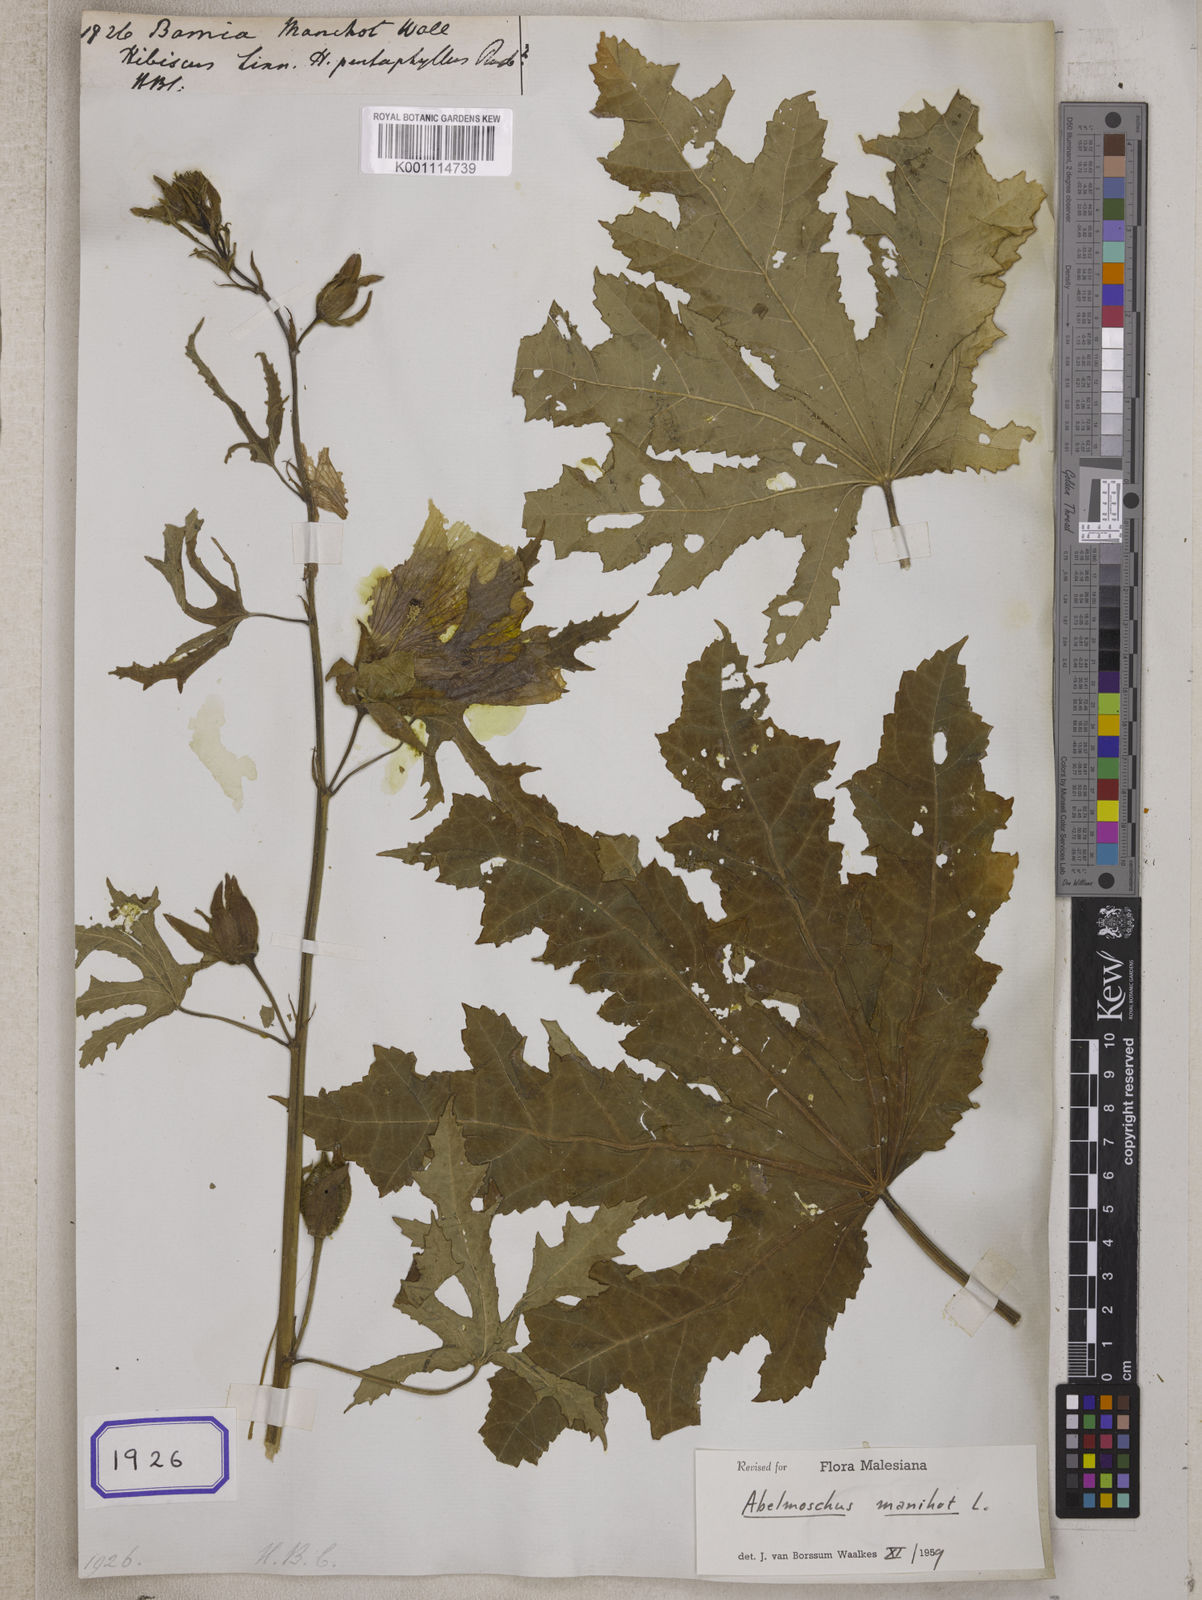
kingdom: Plantae
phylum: Tracheophyta
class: Magnoliopsida
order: Malvales
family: Malvaceae
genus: Bamia
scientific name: Bamia
